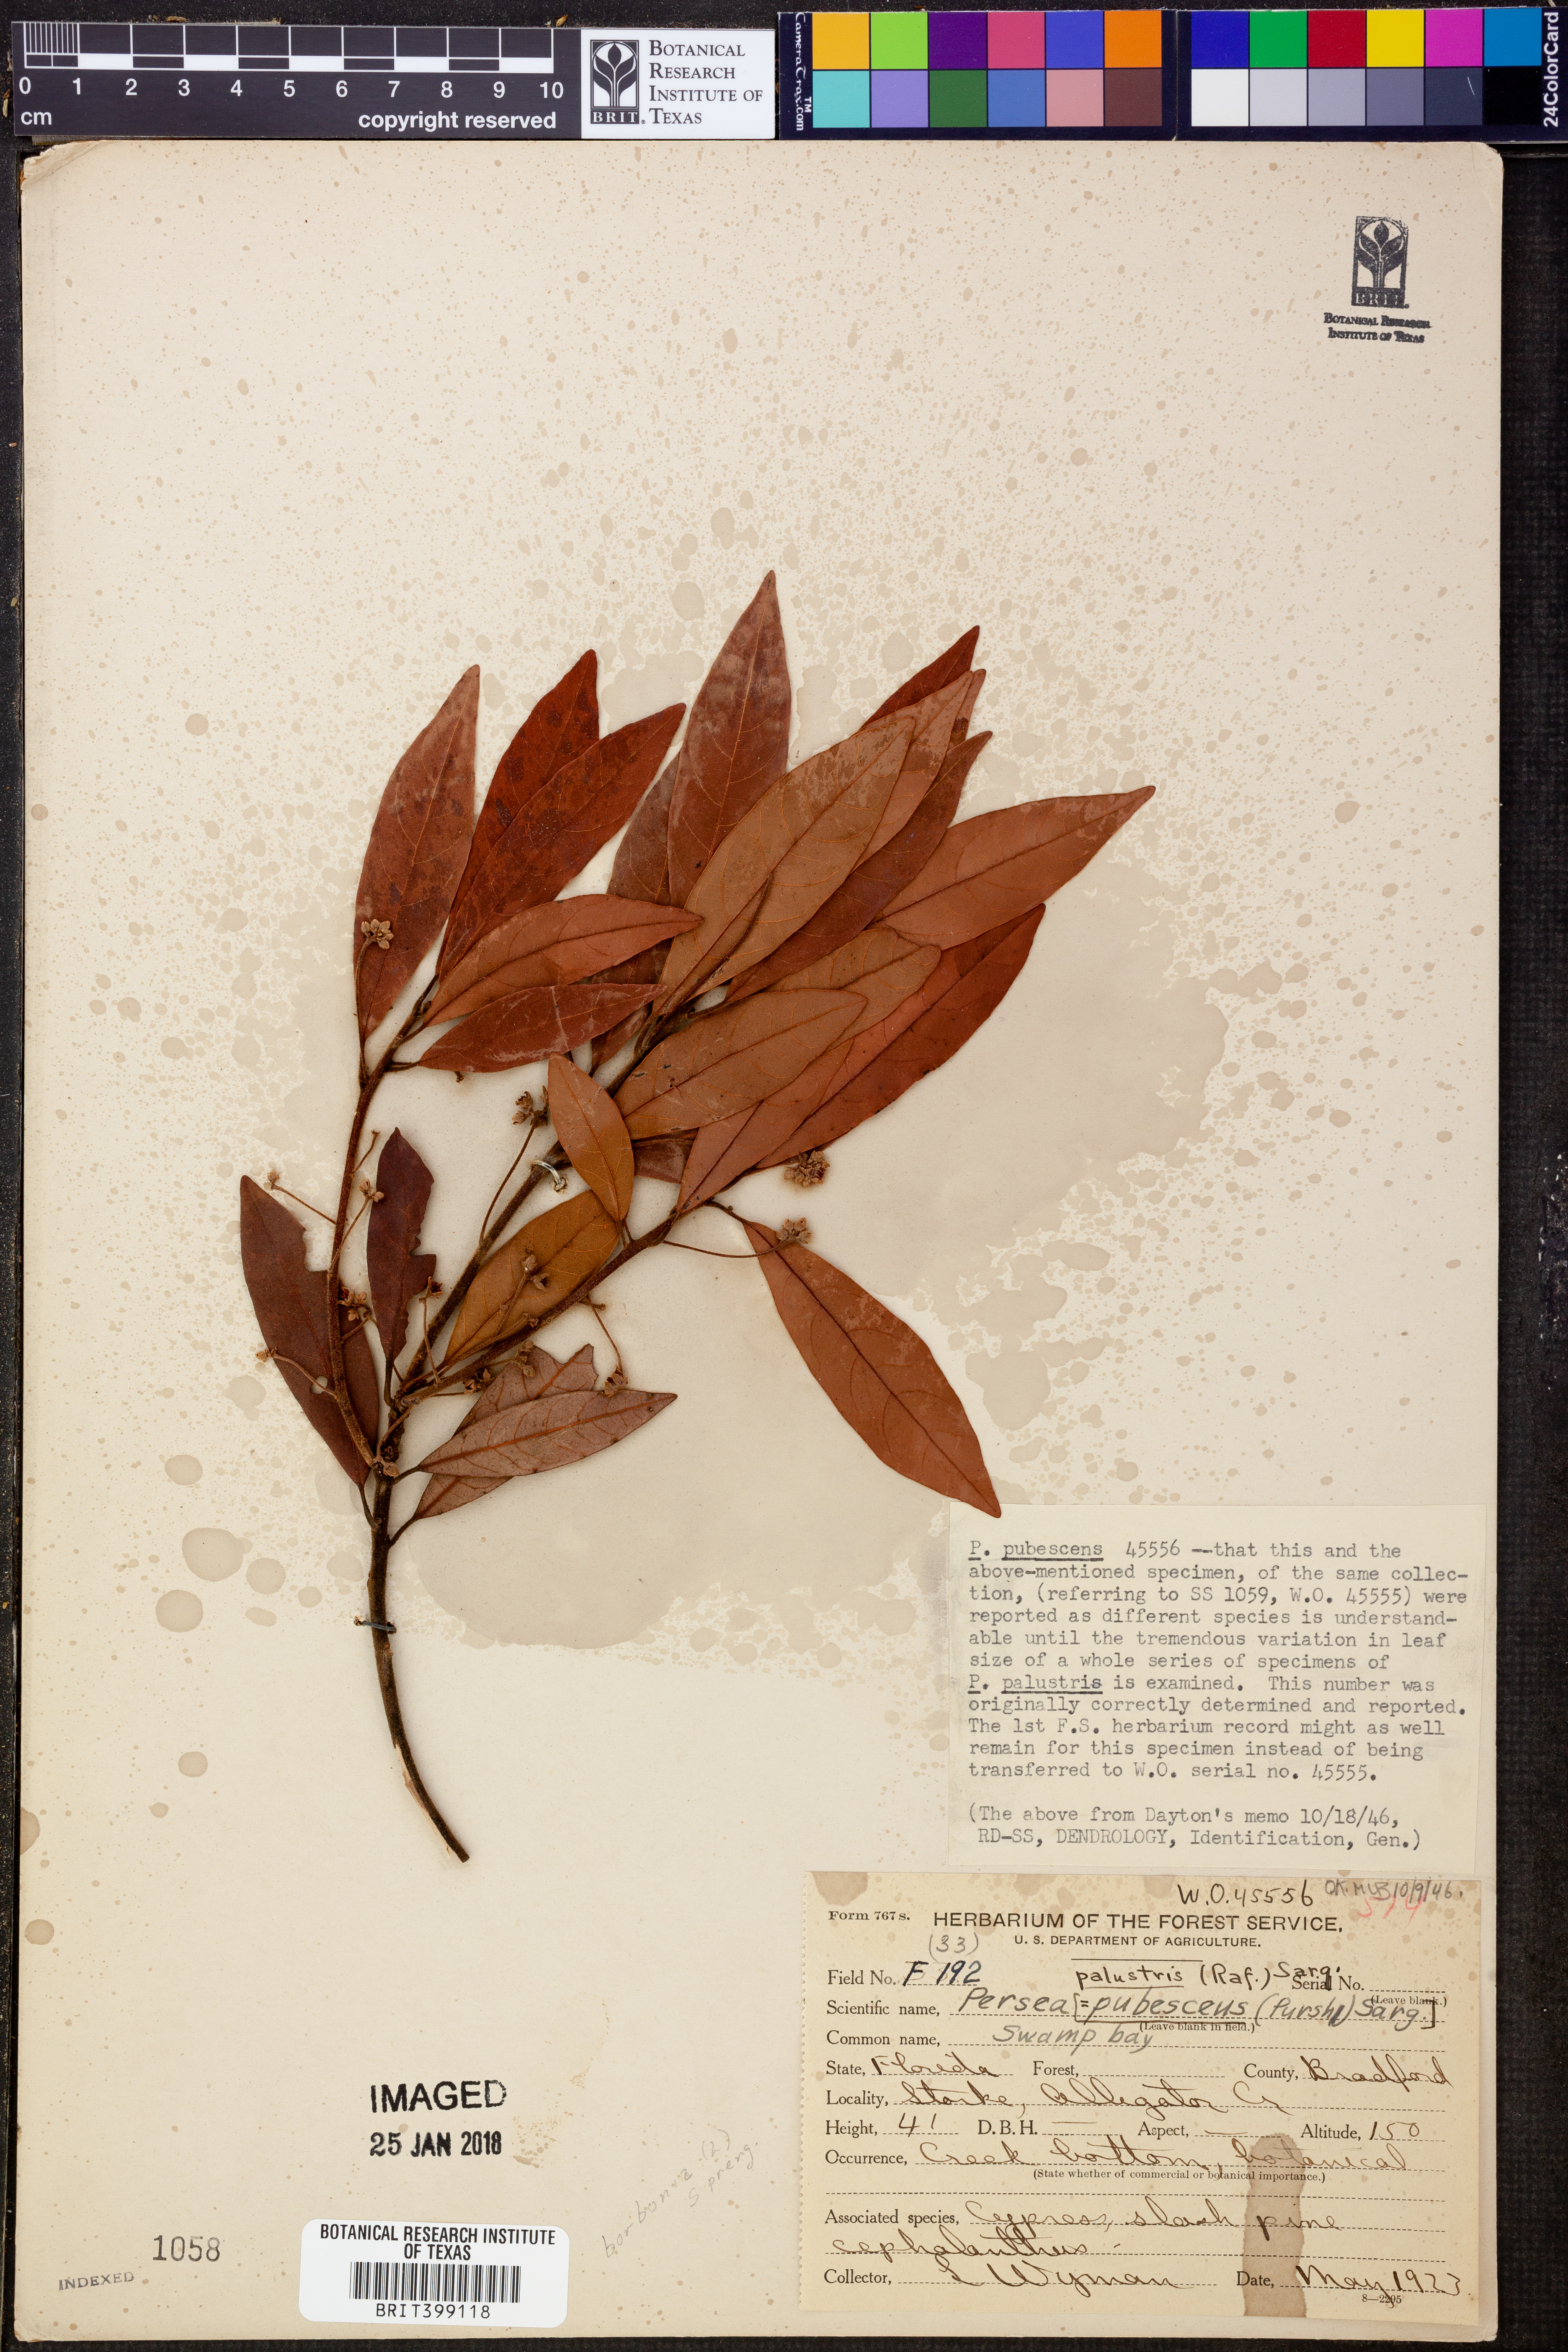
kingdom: Plantae
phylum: Tracheophyta
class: Magnoliopsida
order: Laurales
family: Lauraceae
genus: Persea
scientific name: Persea palustris
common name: Swampbay
